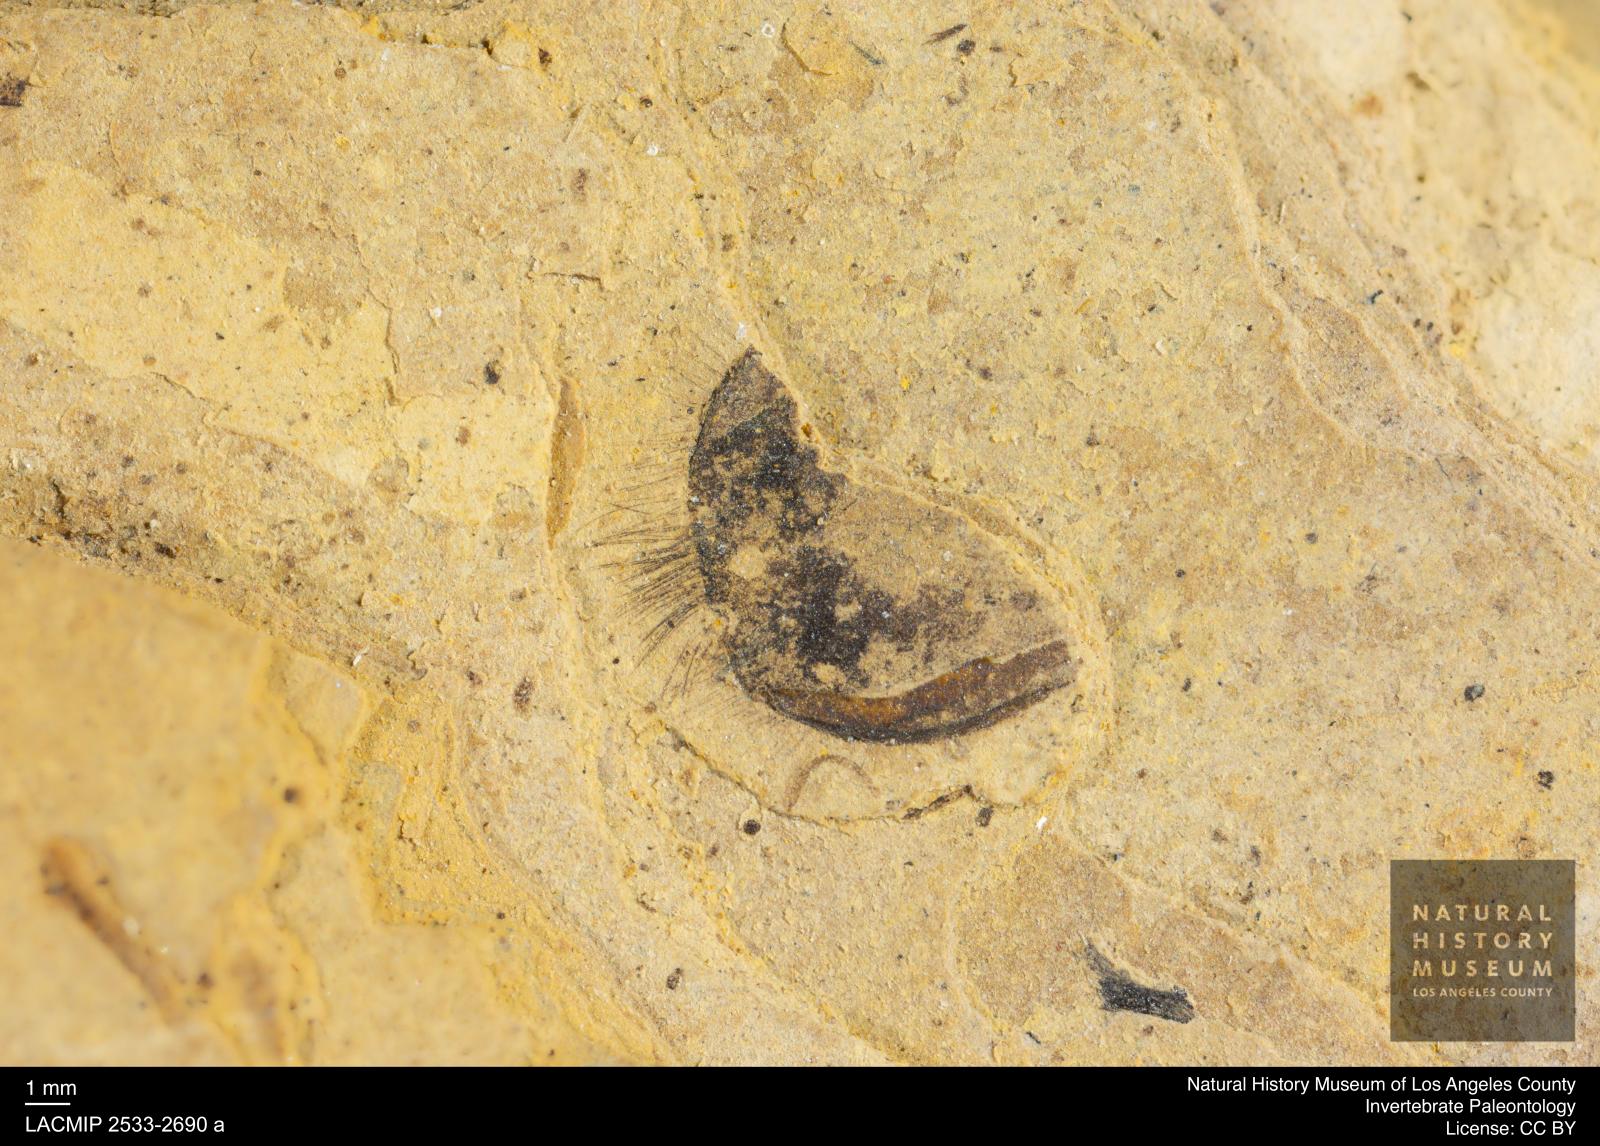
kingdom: Animalia
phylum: Arthropoda
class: Insecta
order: Hymenoptera
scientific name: Hymenoptera
